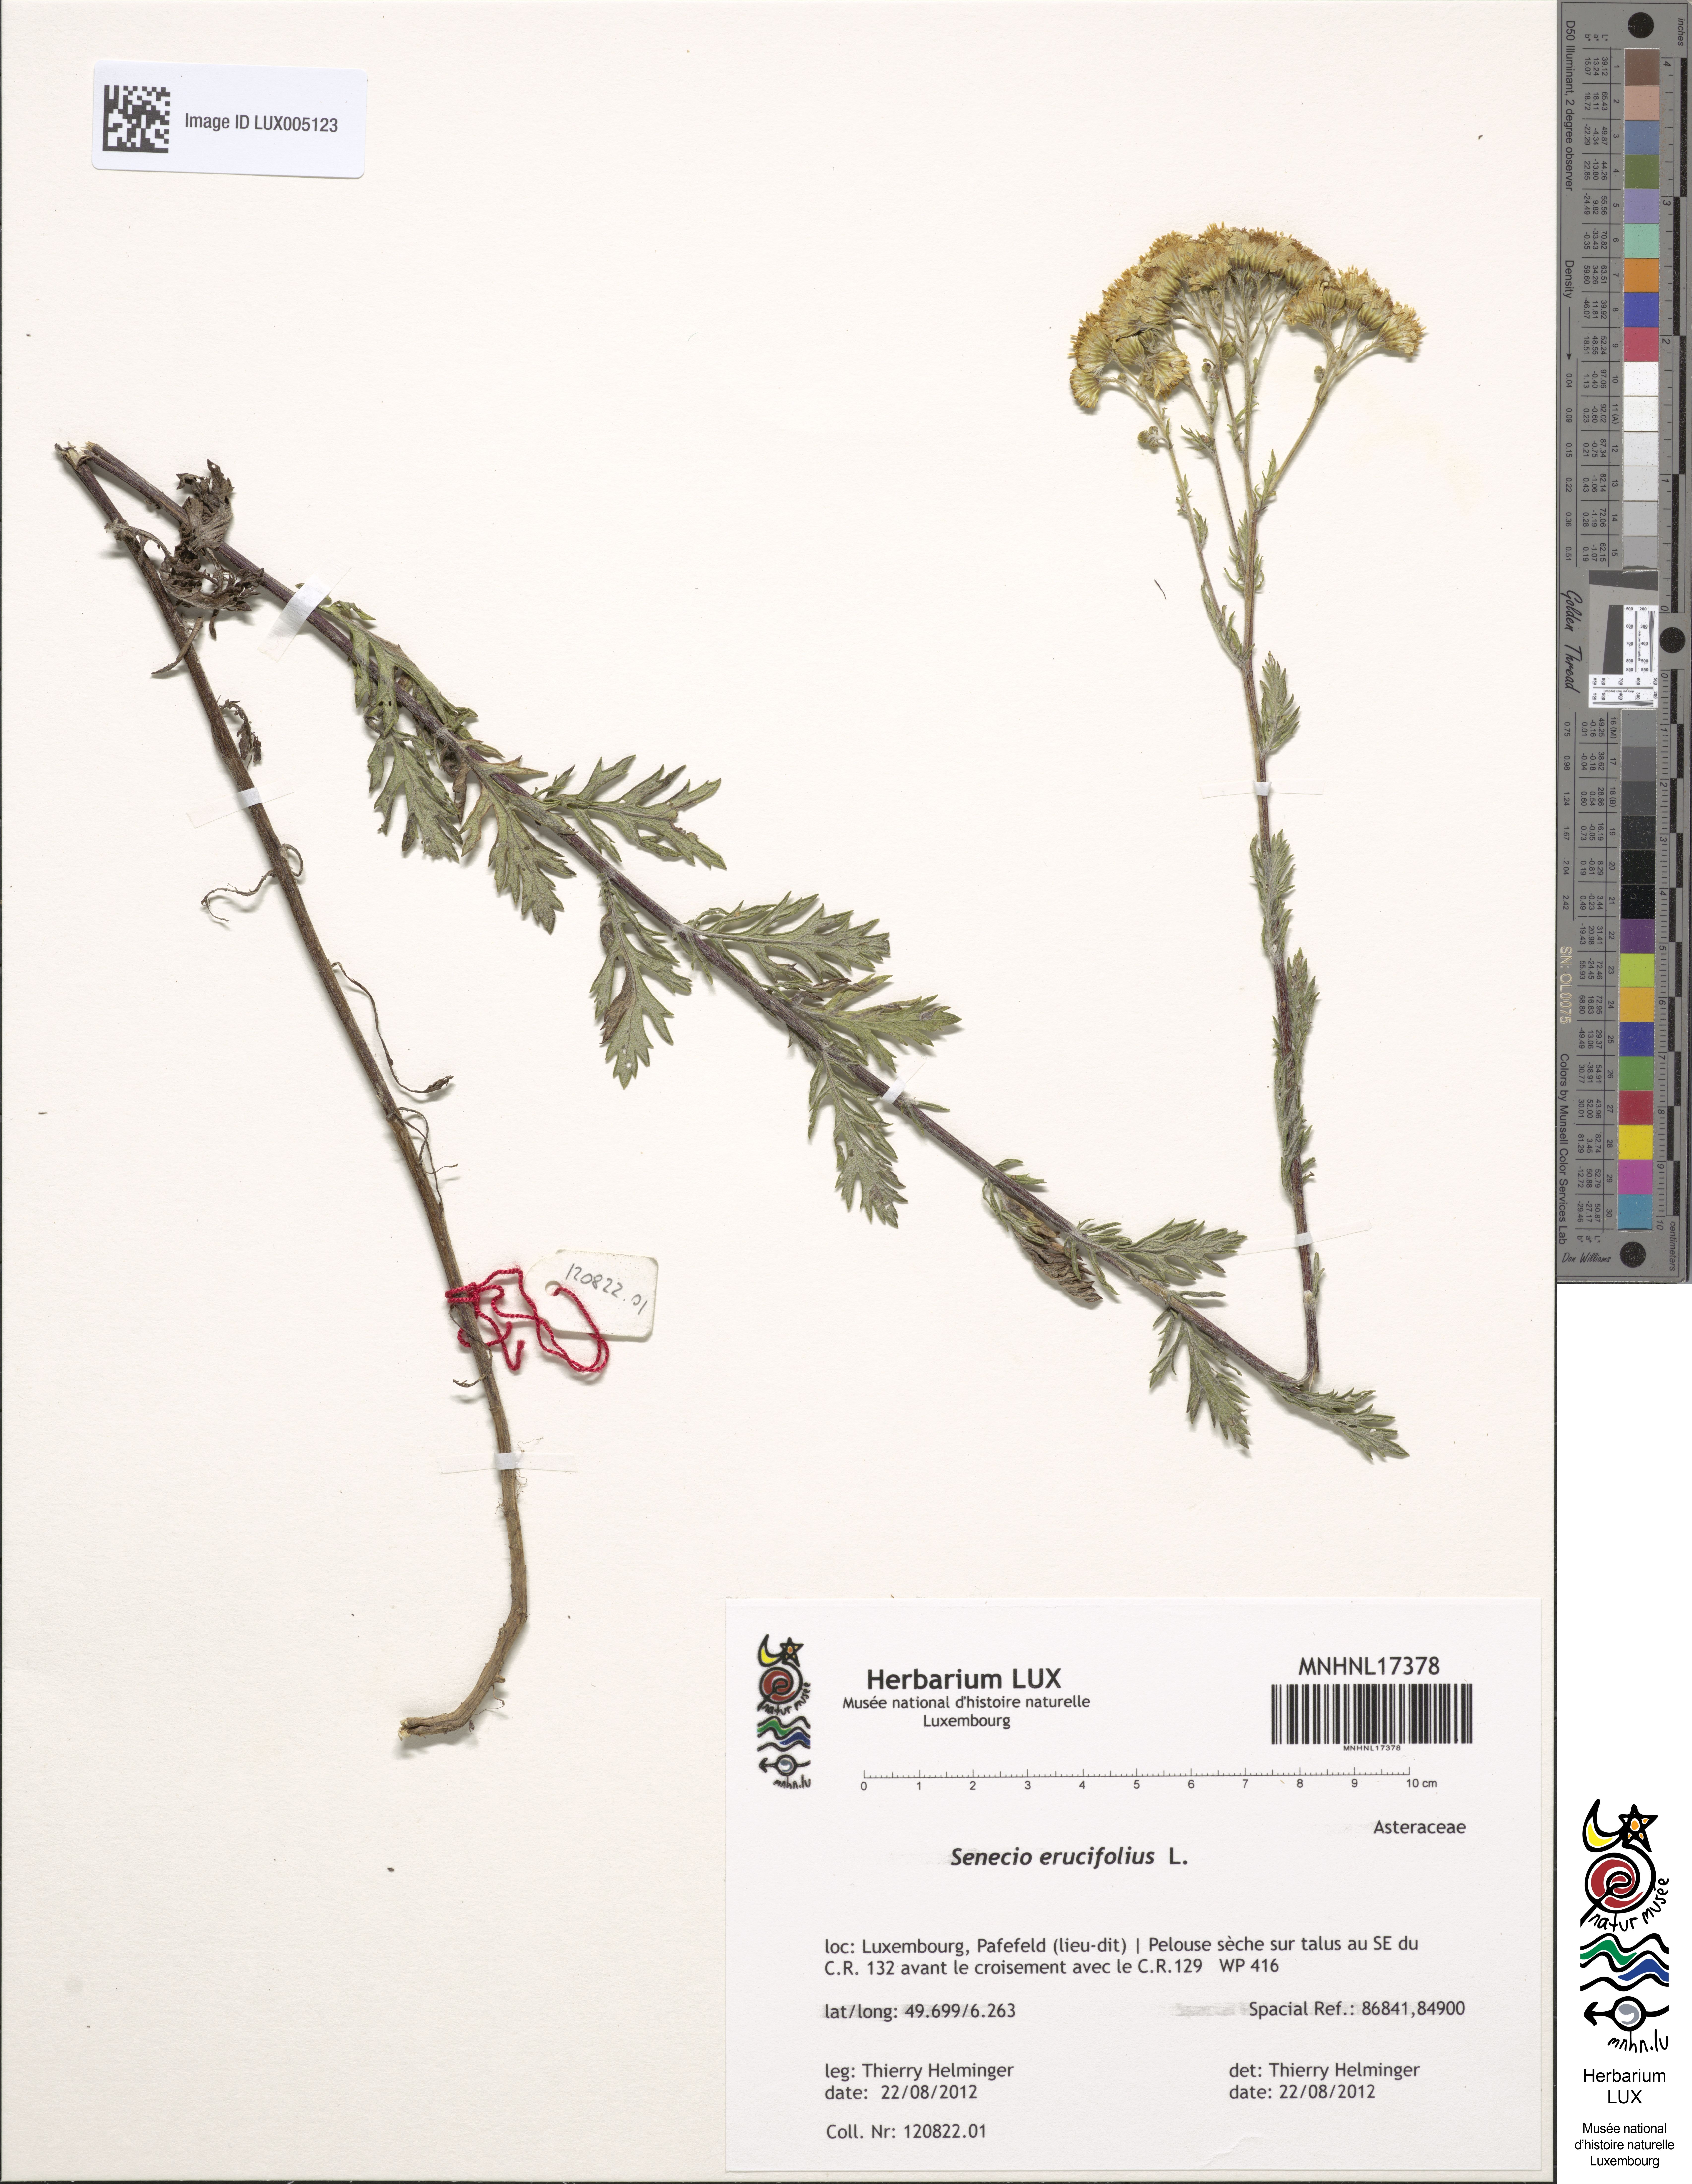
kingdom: Plantae
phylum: Tracheophyta
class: Magnoliopsida
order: Asterales
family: Asteraceae
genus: Jacobaea
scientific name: Jacobaea erucifolia
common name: Hoary ragwort
